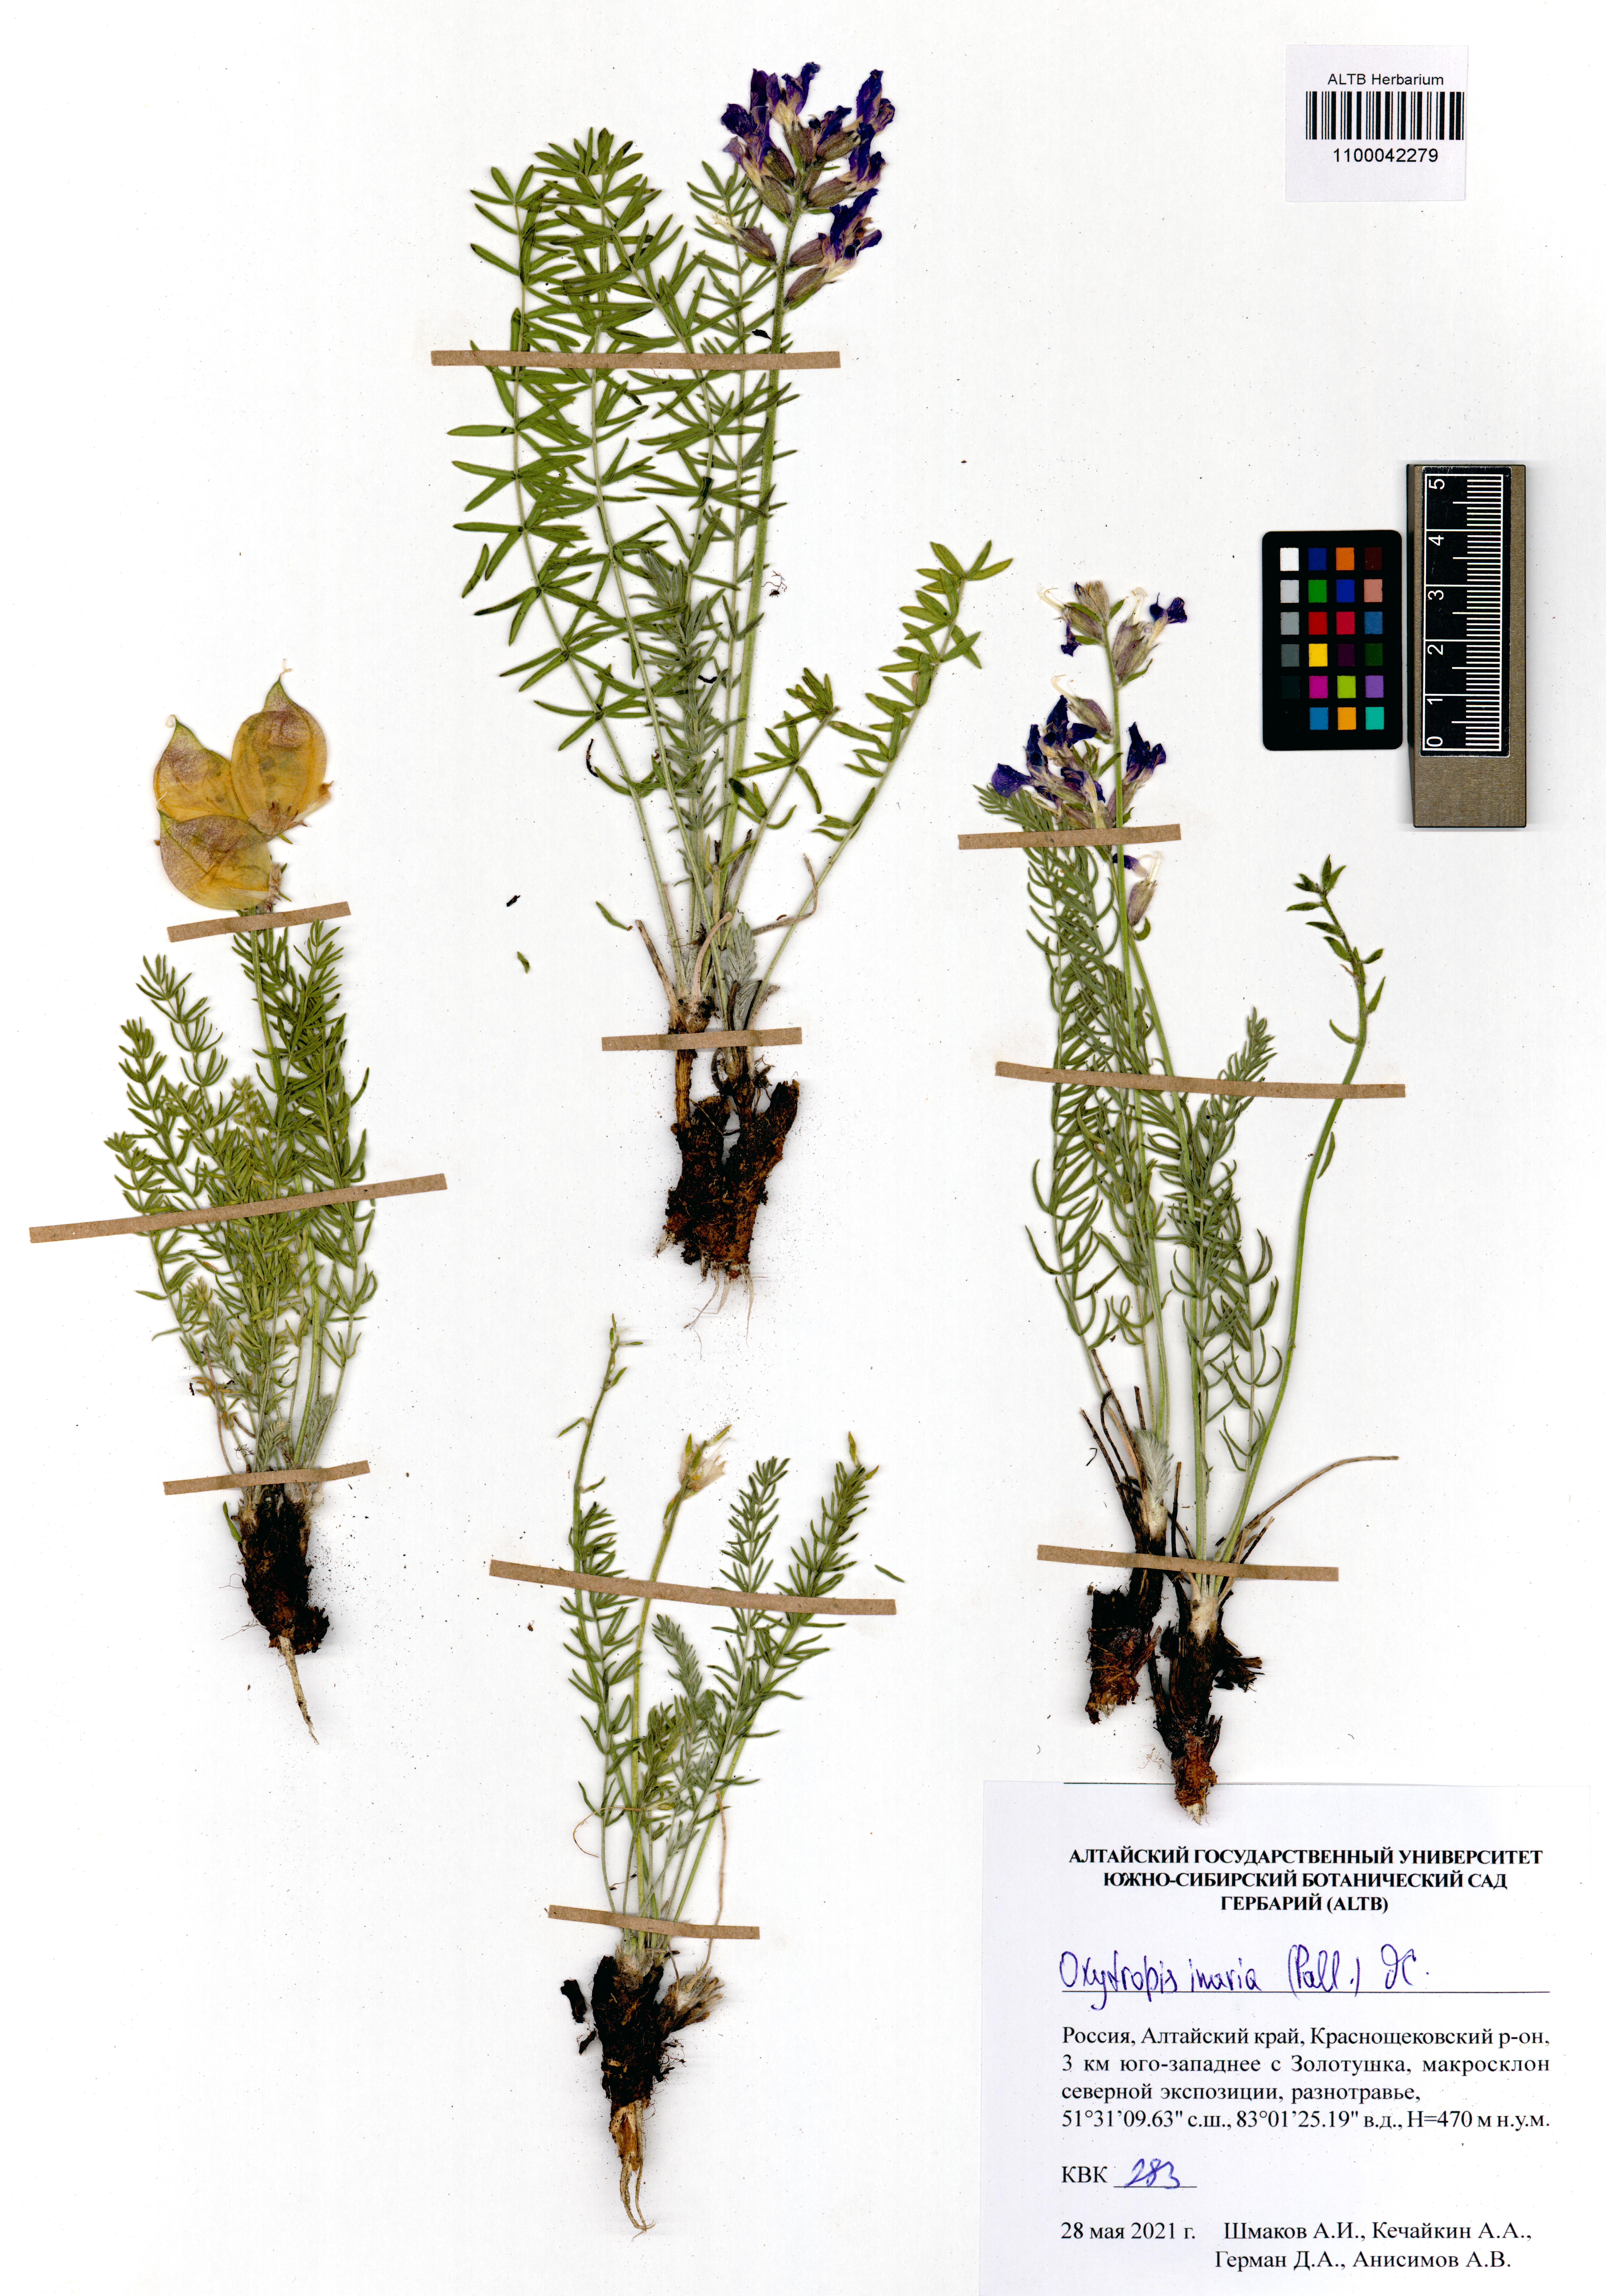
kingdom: Plantae
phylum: Tracheophyta
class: Magnoliopsida
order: Fabales
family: Fabaceae
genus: Oxytropis
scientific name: Oxytropis inaria
